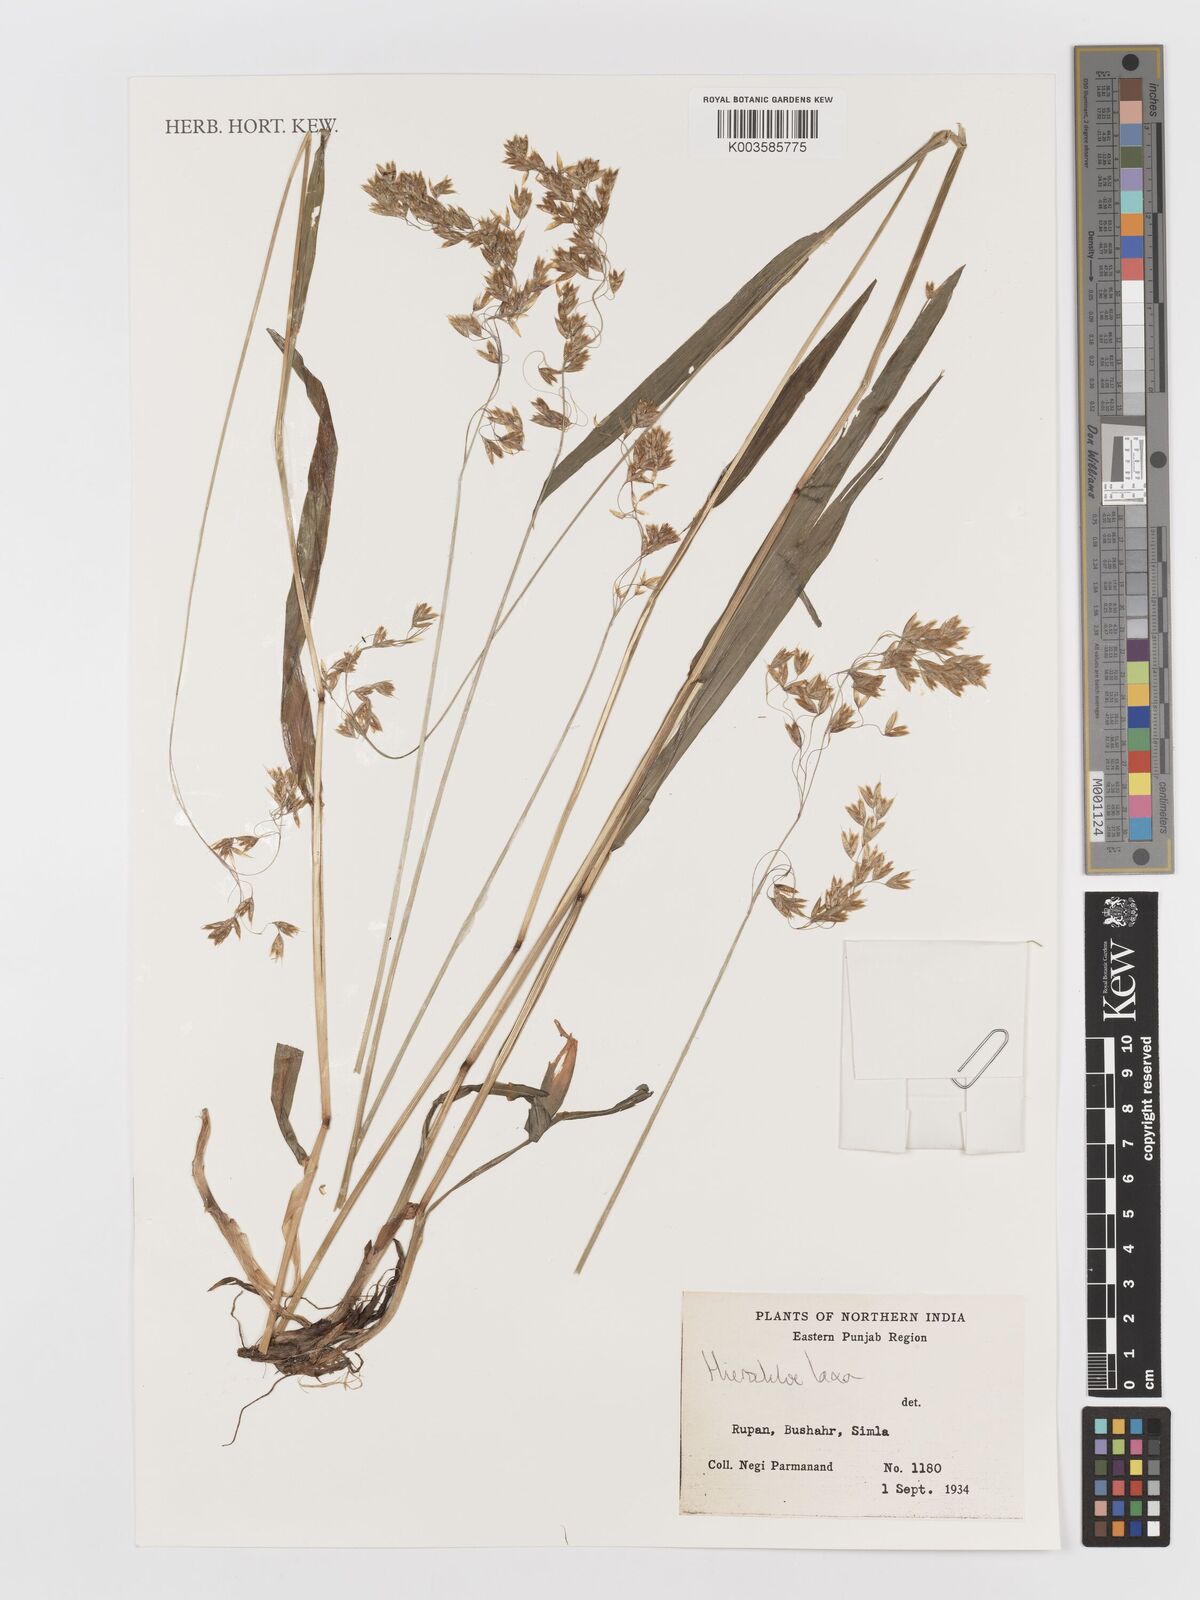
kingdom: Plantae
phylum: Tracheophyta
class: Liliopsida
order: Poales
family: Poaceae
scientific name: Poaceae
